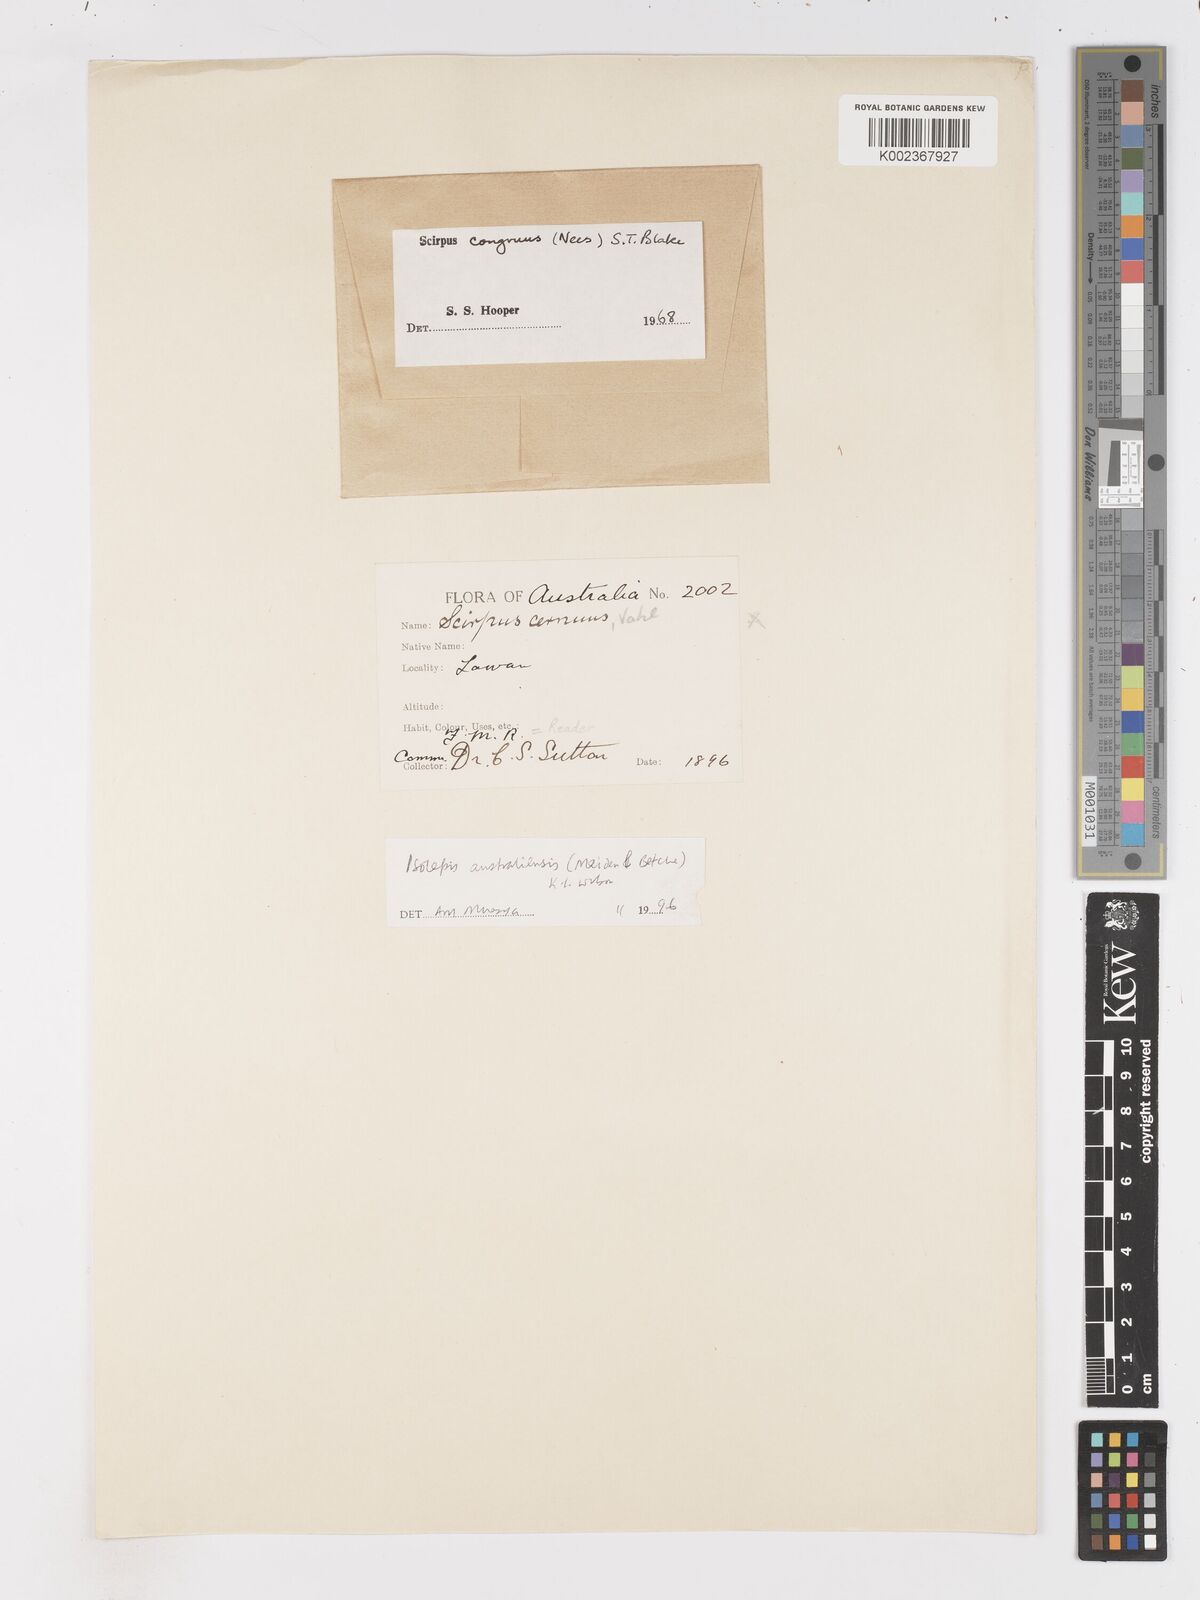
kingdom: Plantae
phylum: Tracheophyta
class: Liliopsida
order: Poales
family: Cyperaceae
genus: Isolepis
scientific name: Isolepis multicaulis
